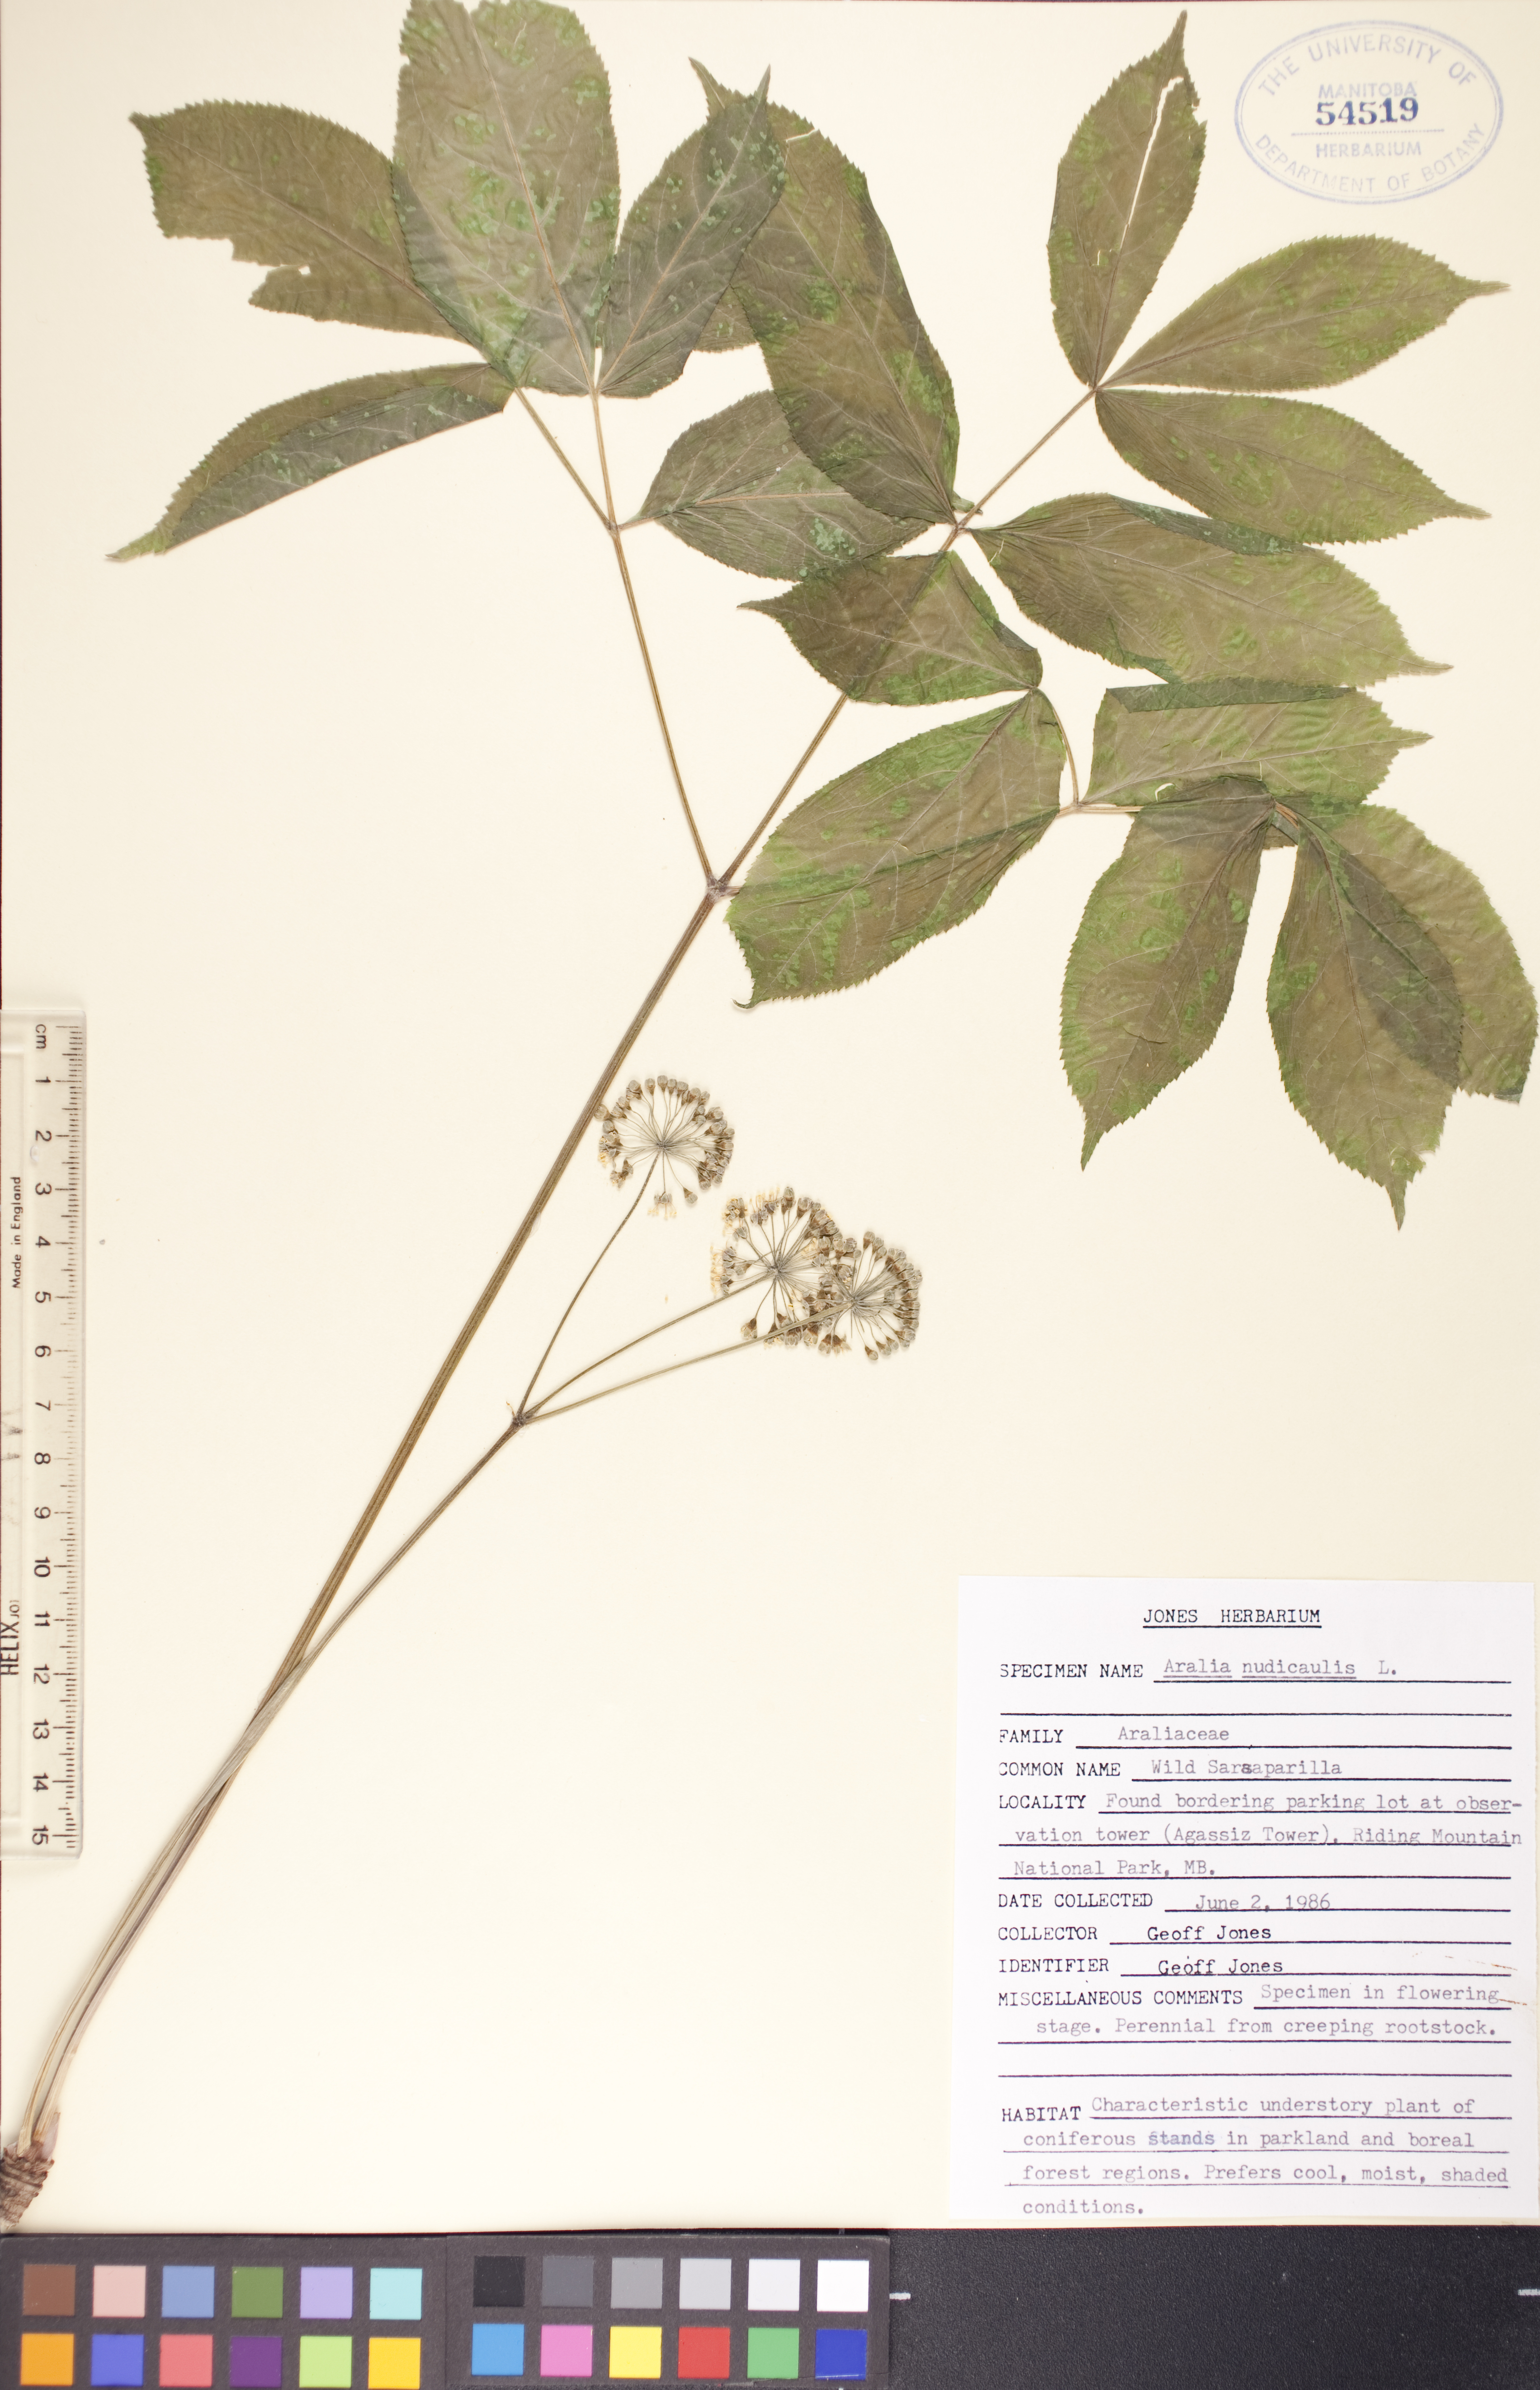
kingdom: Plantae
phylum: Tracheophyta
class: Magnoliopsida
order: Apiales
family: Araliaceae
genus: Aralia
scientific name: Aralia nudicaulis
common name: Wild sarsaparilla
